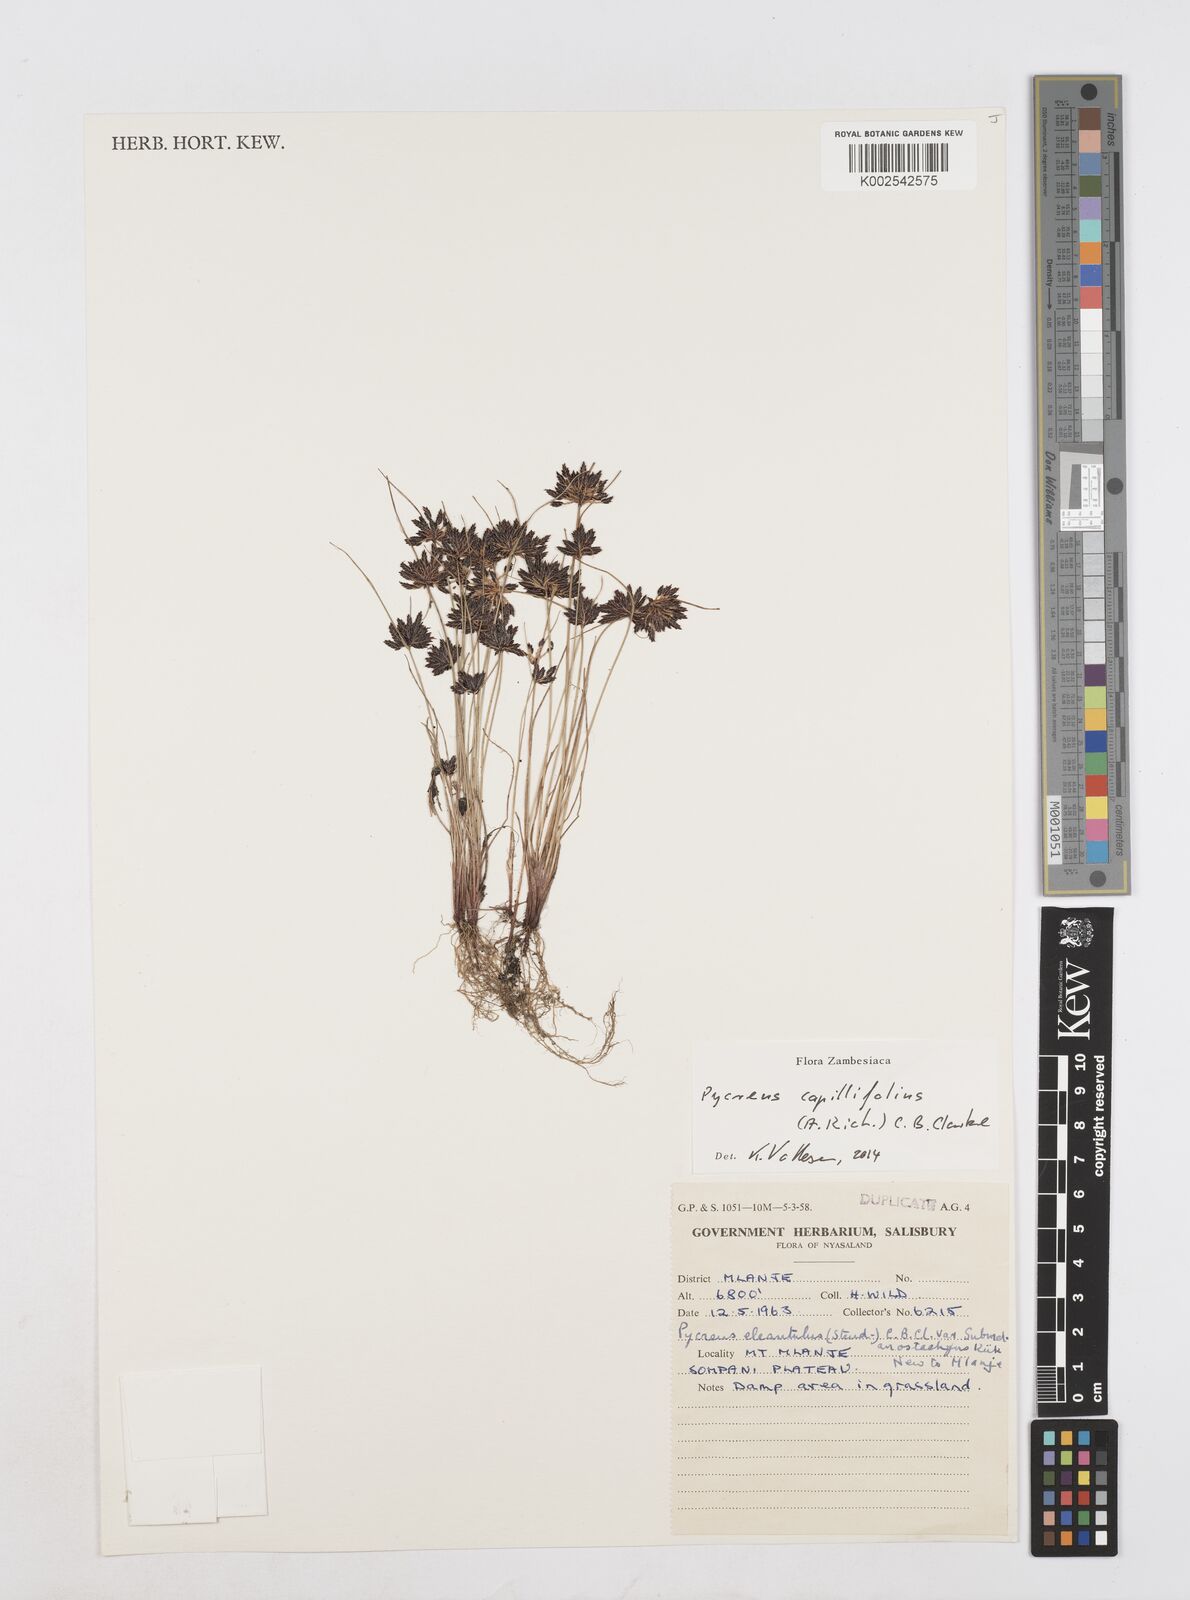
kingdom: Plantae
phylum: Tracheophyta
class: Liliopsida
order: Poales
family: Cyperaceae
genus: Cyperus
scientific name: Cyperus capillifolius
